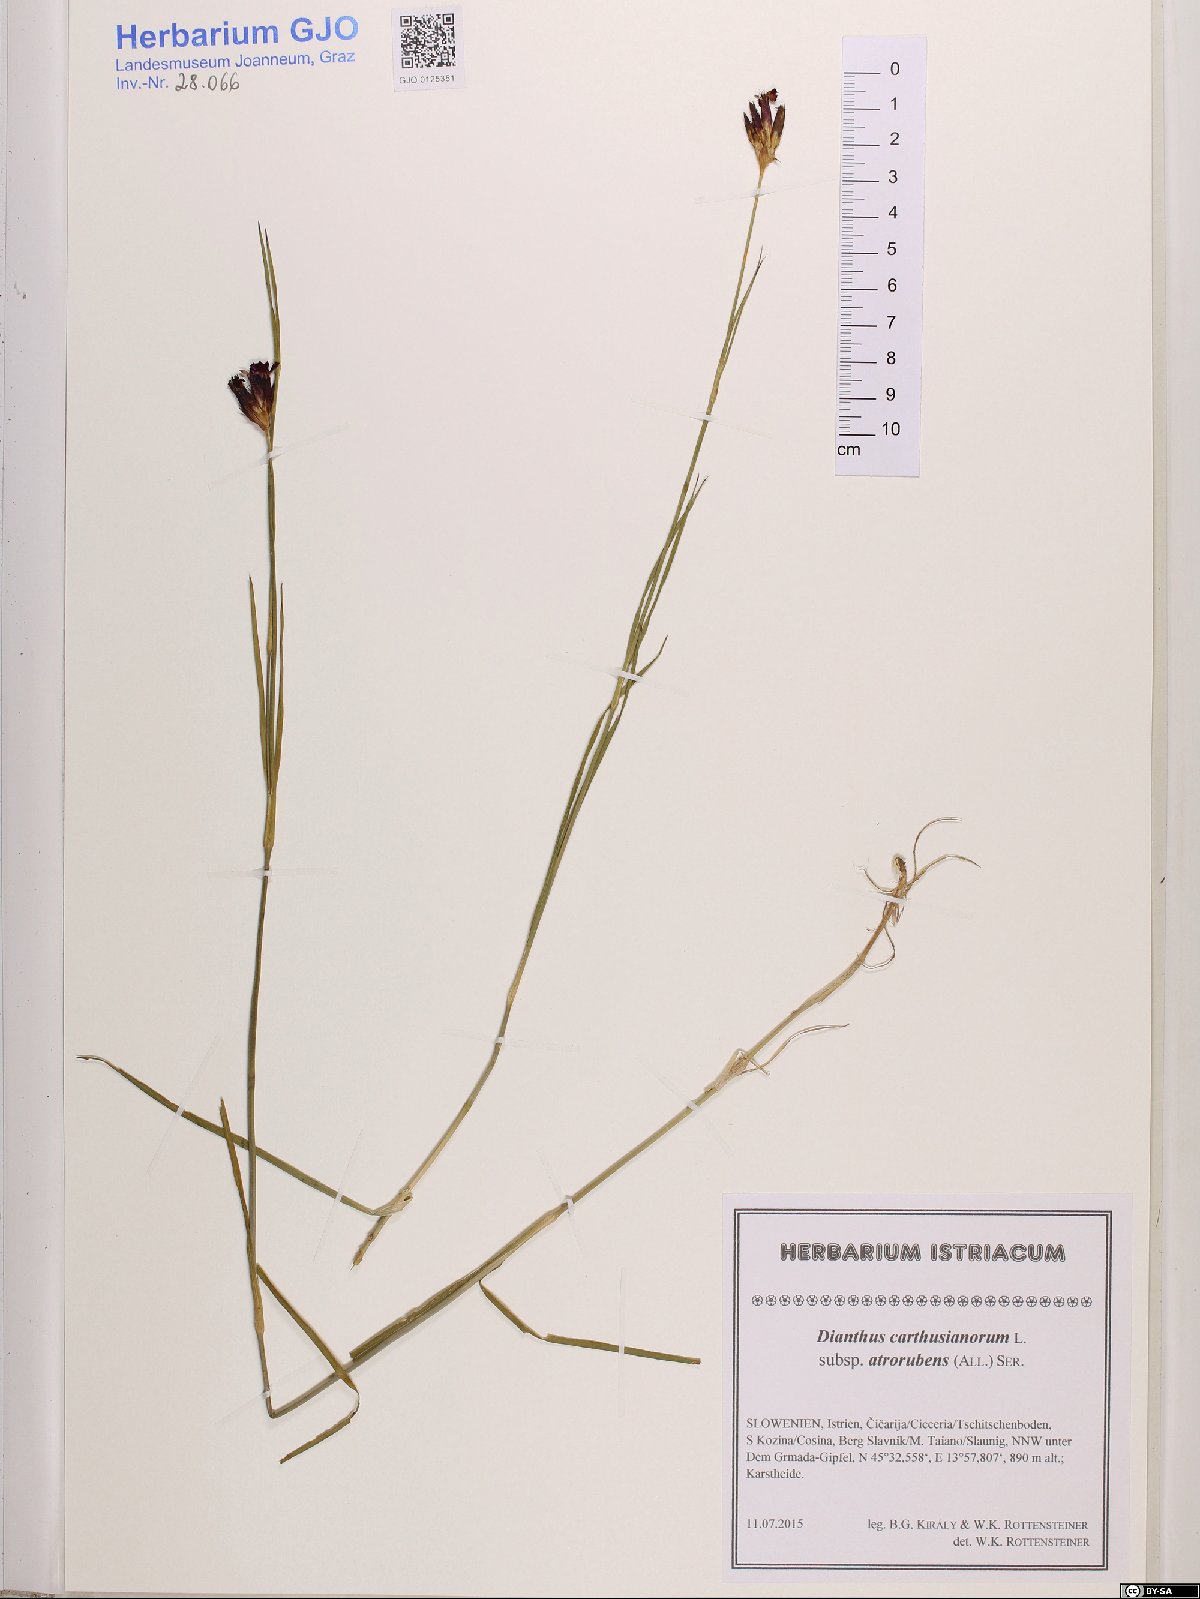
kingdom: Plantae
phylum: Tracheophyta
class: Magnoliopsida
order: Caryophyllales
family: Caryophyllaceae
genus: Dianthus
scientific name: Dianthus carthusianorum
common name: Carthusian pink
